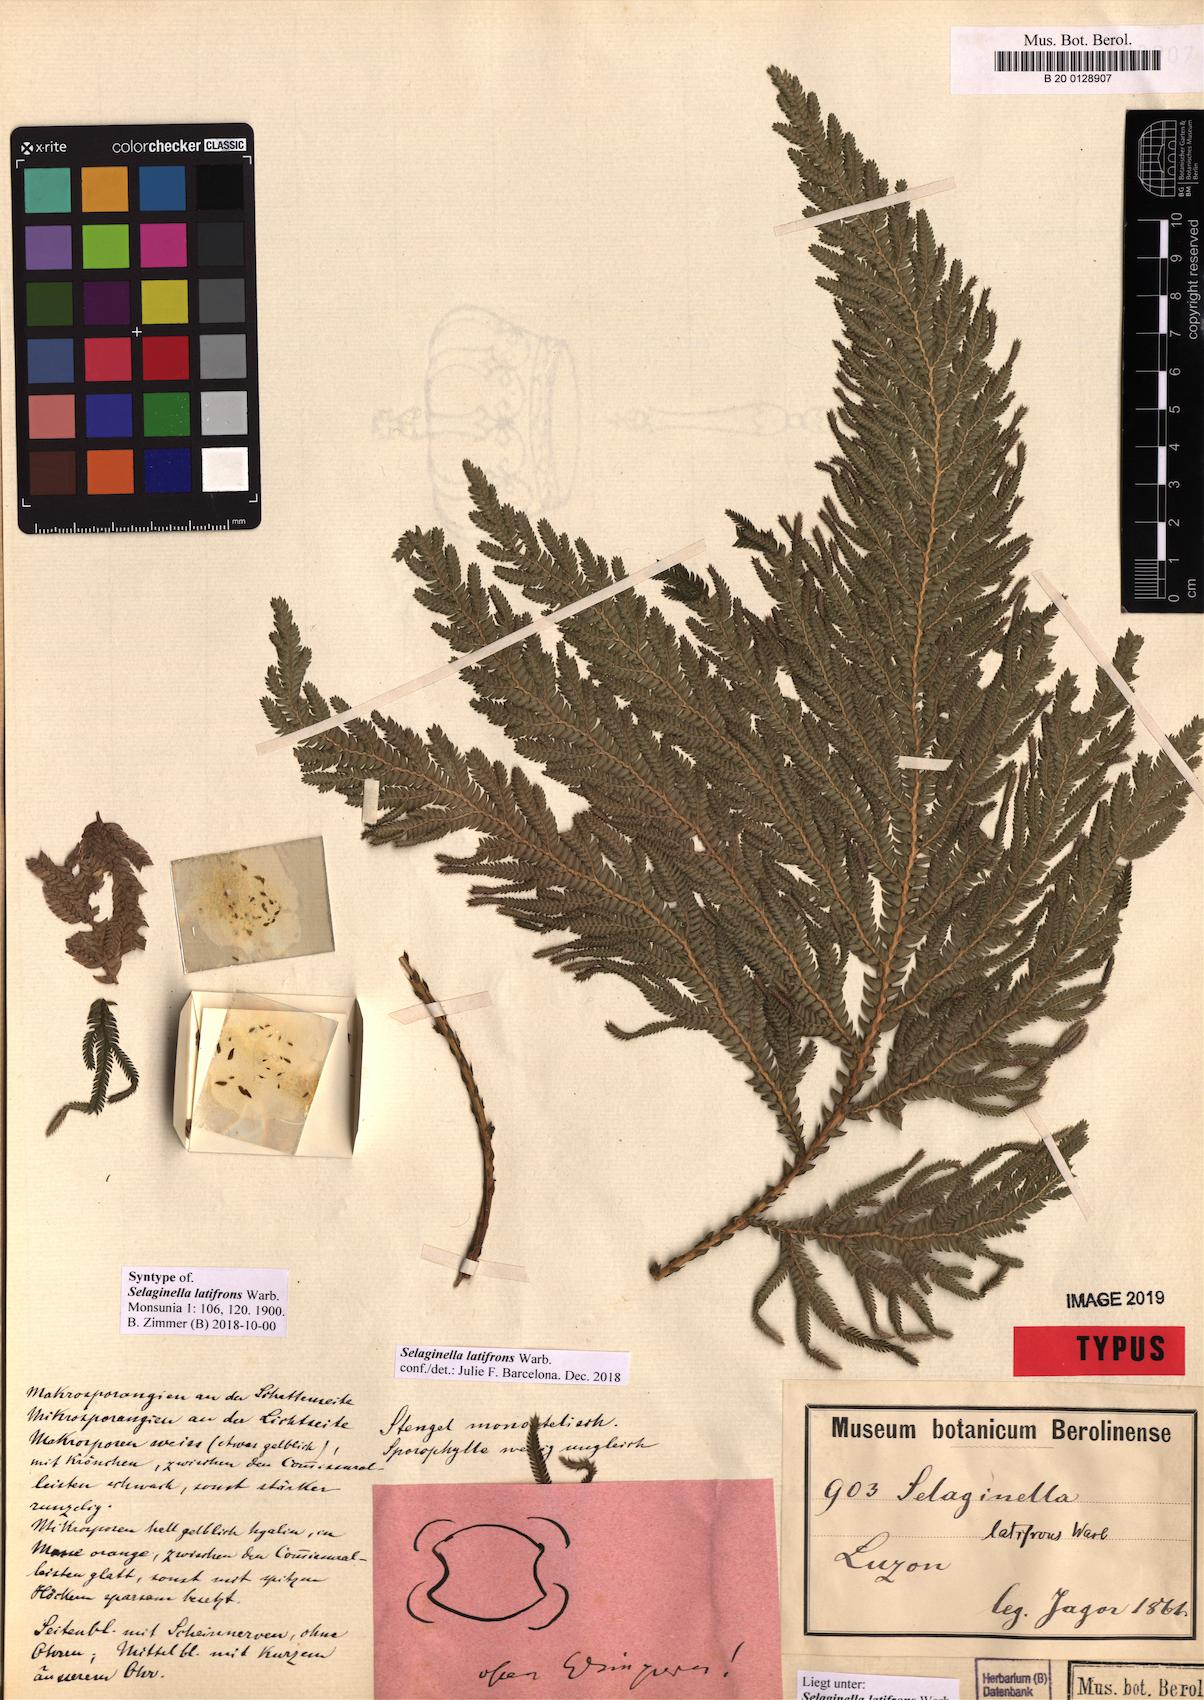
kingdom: Plantae
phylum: Tracheophyta
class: Lycopodiopsida
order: Selaginellales
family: Selaginellaceae
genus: Selaginella
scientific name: Selaginella copelandii
